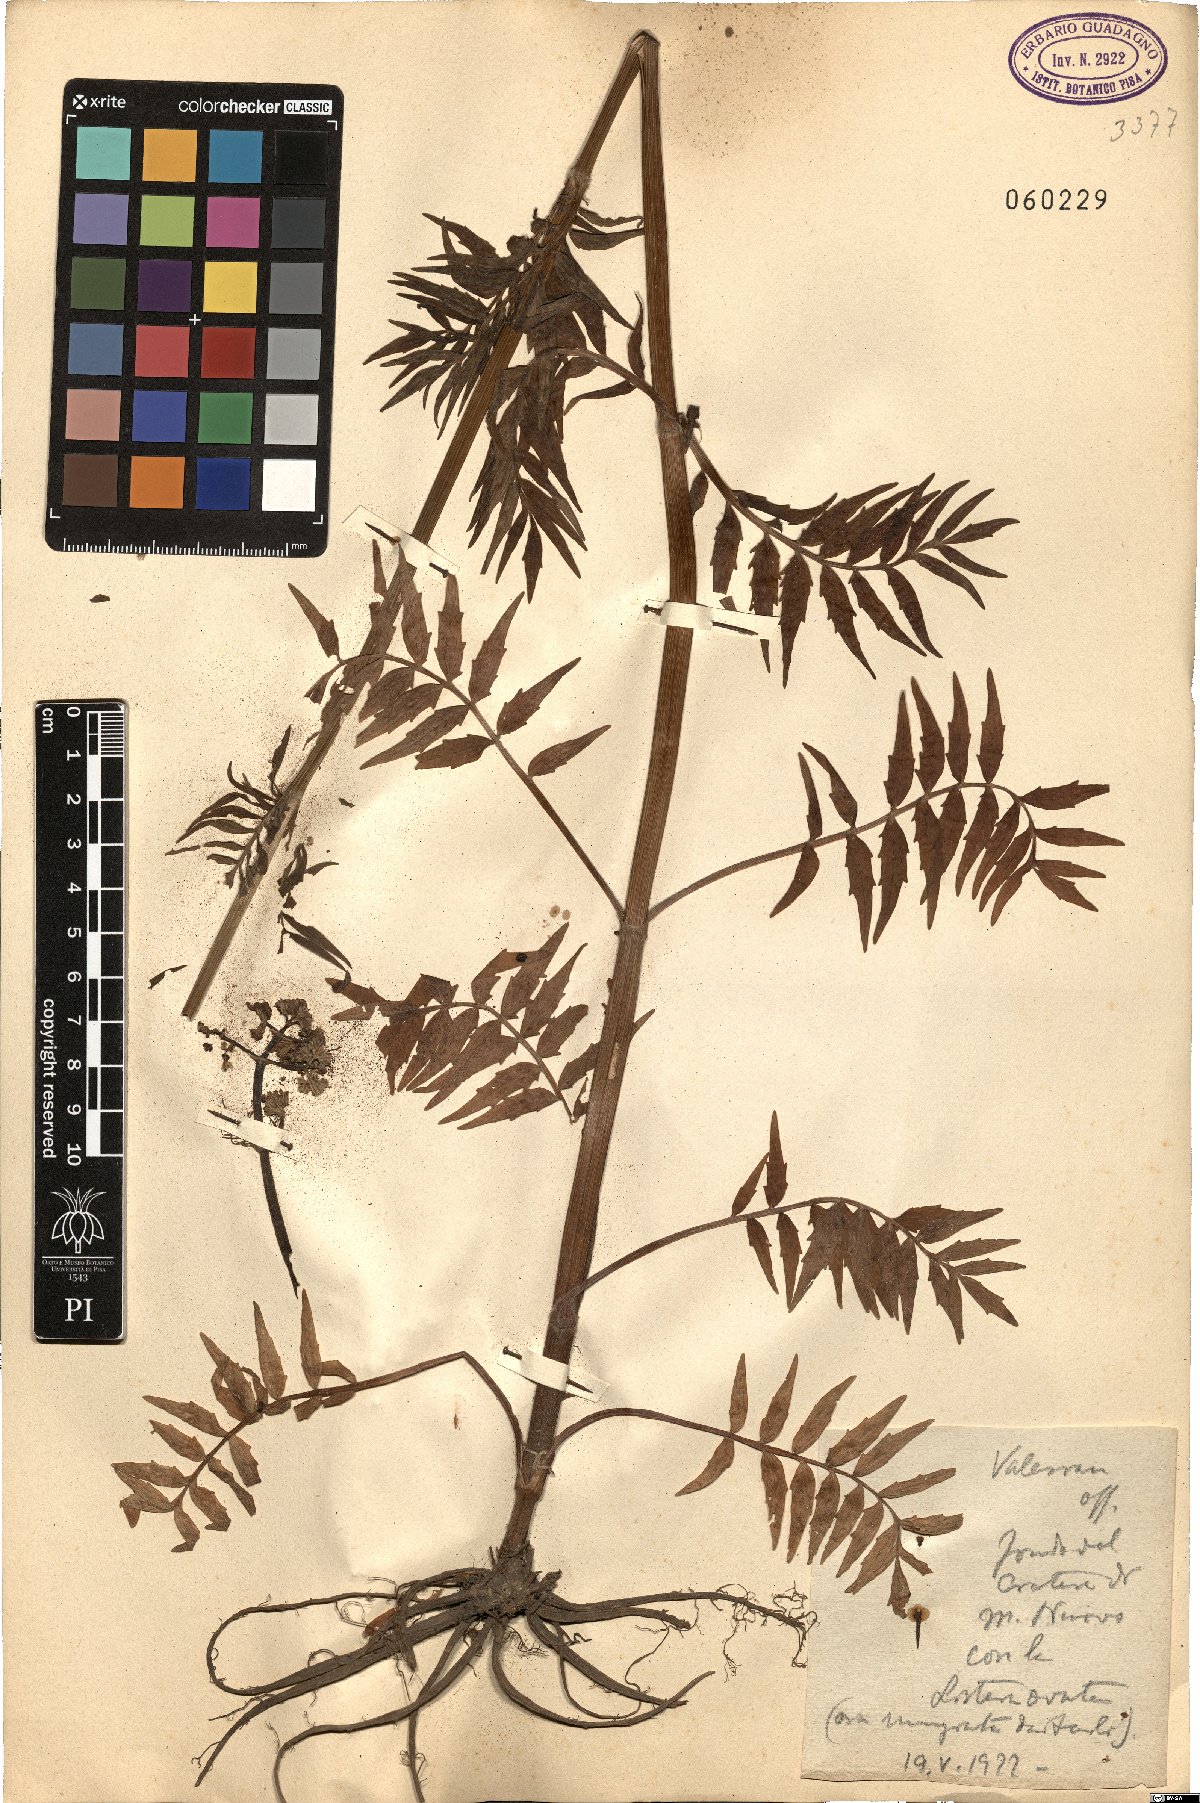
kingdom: Plantae
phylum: Tracheophyta
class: Magnoliopsida
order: Dipsacales
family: Caprifoliaceae
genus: Valeriana
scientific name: Valeriana officinalis
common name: Common valerian
